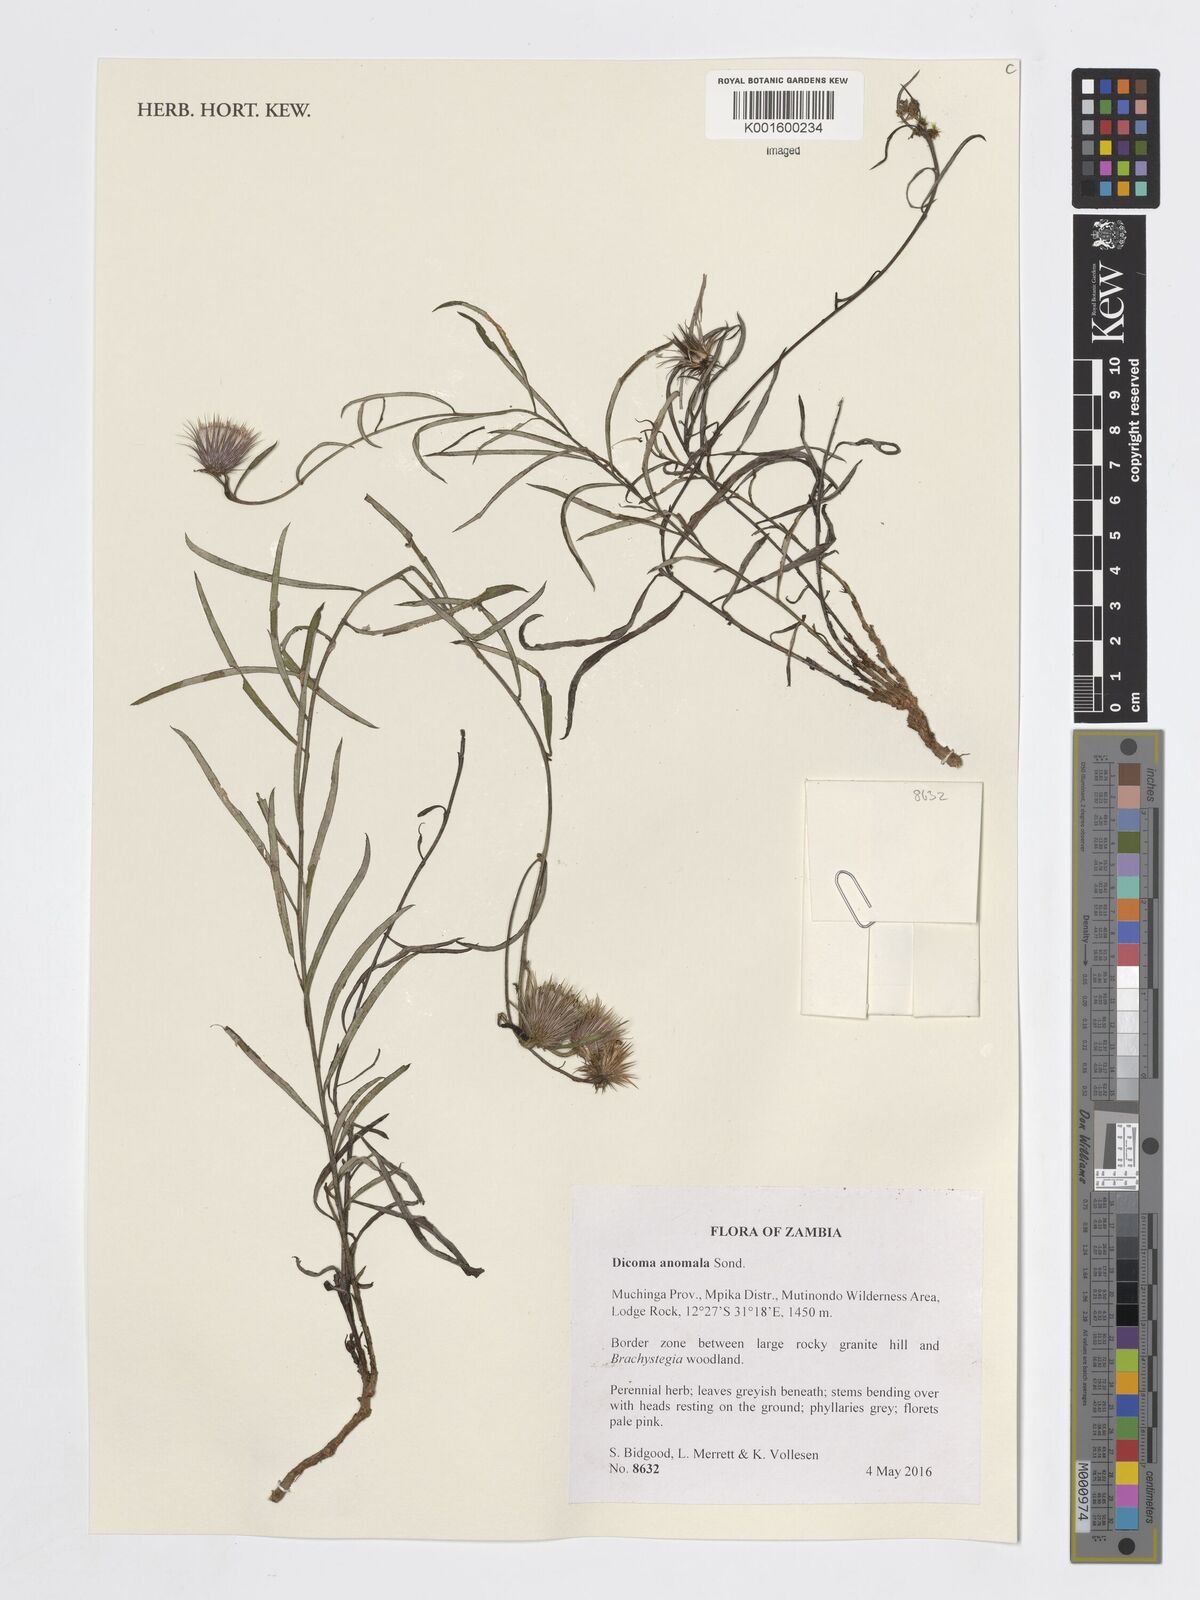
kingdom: Plantae
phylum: Tracheophyta
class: Magnoliopsida
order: Asterales
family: Asteraceae
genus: Dicoma
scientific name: Dicoma anomala
